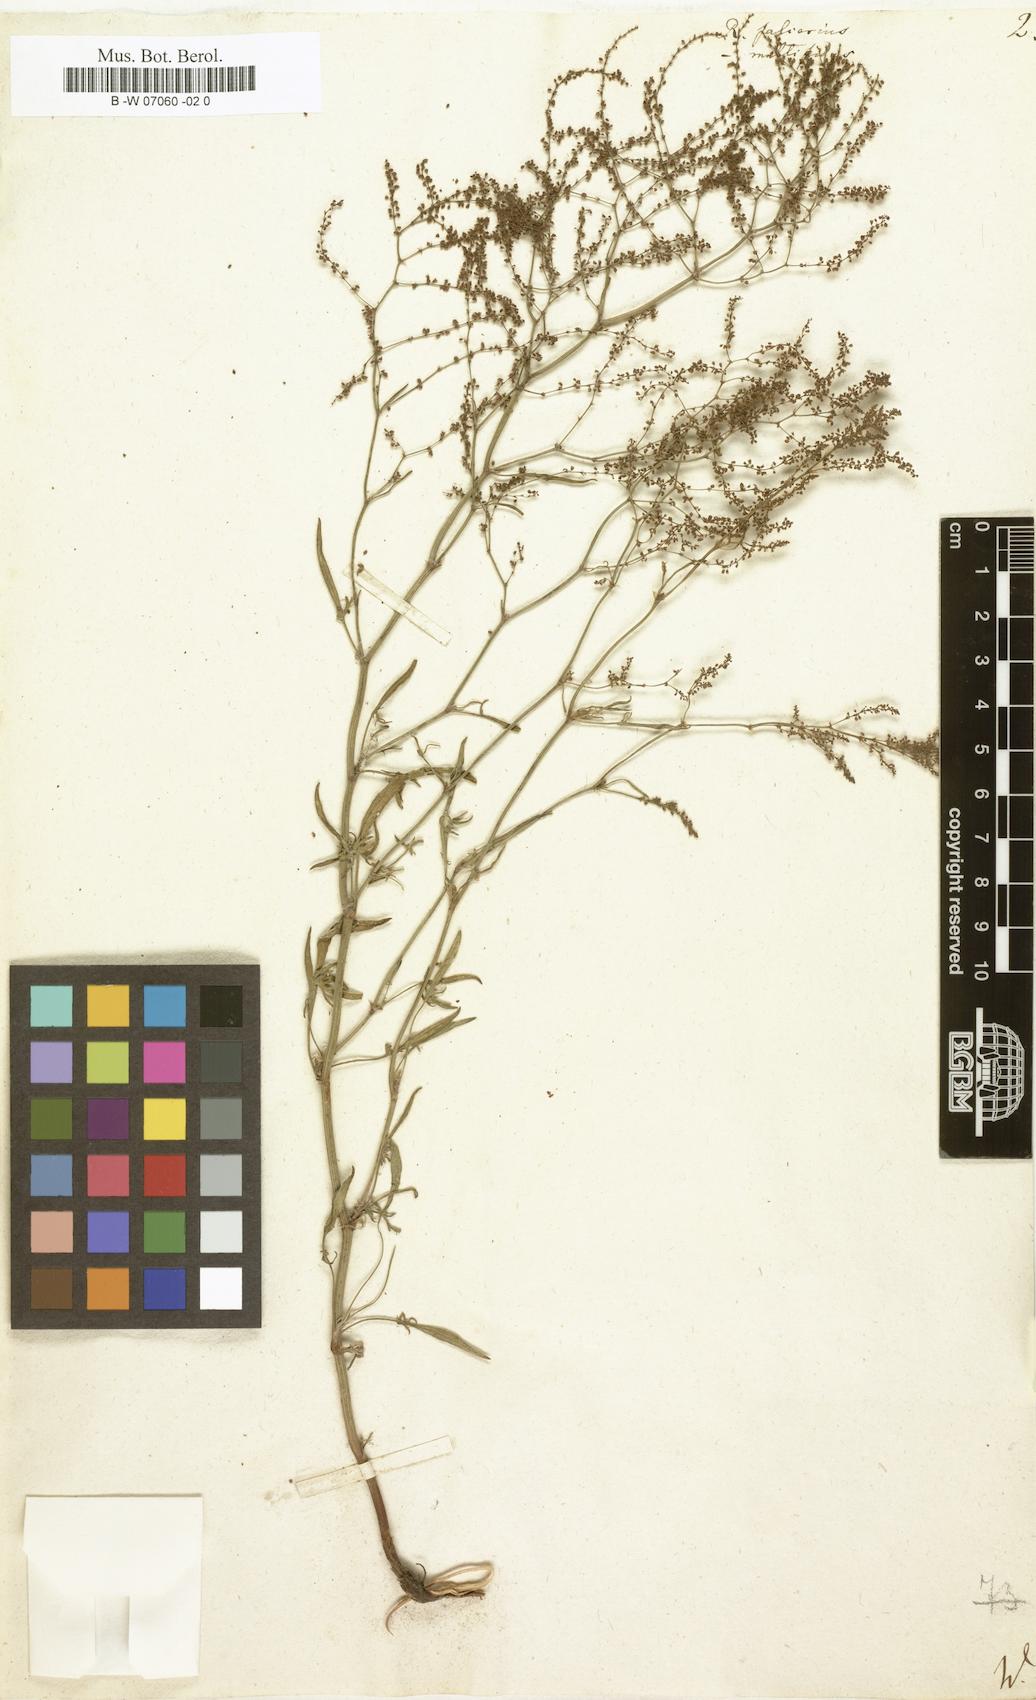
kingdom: Plantae
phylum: Tracheophyta
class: Magnoliopsida
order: Caryophyllales
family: Polygonaceae
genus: Rumex
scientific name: Rumex acetosella
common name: Common sheep sorrel
